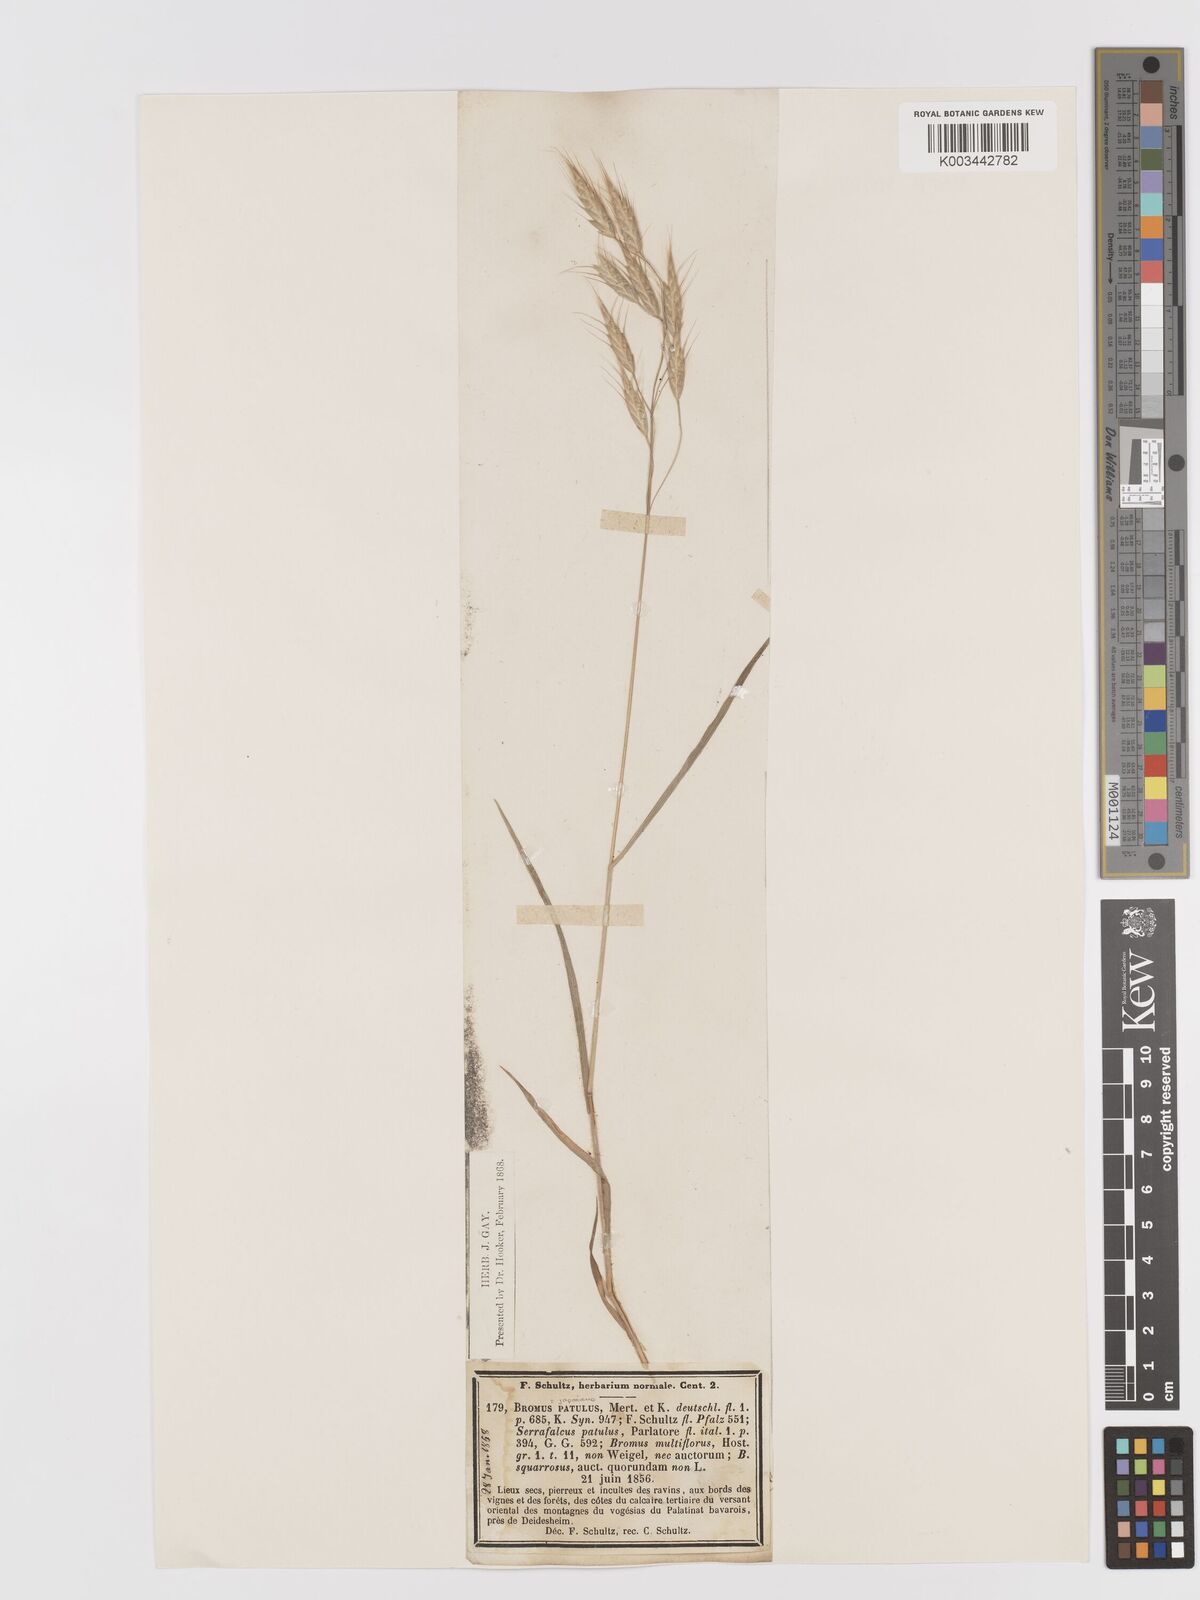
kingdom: Plantae
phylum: Tracheophyta
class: Liliopsida
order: Poales
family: Poaceae
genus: Bromus
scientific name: Bromus japonicus
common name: Japanese brome
